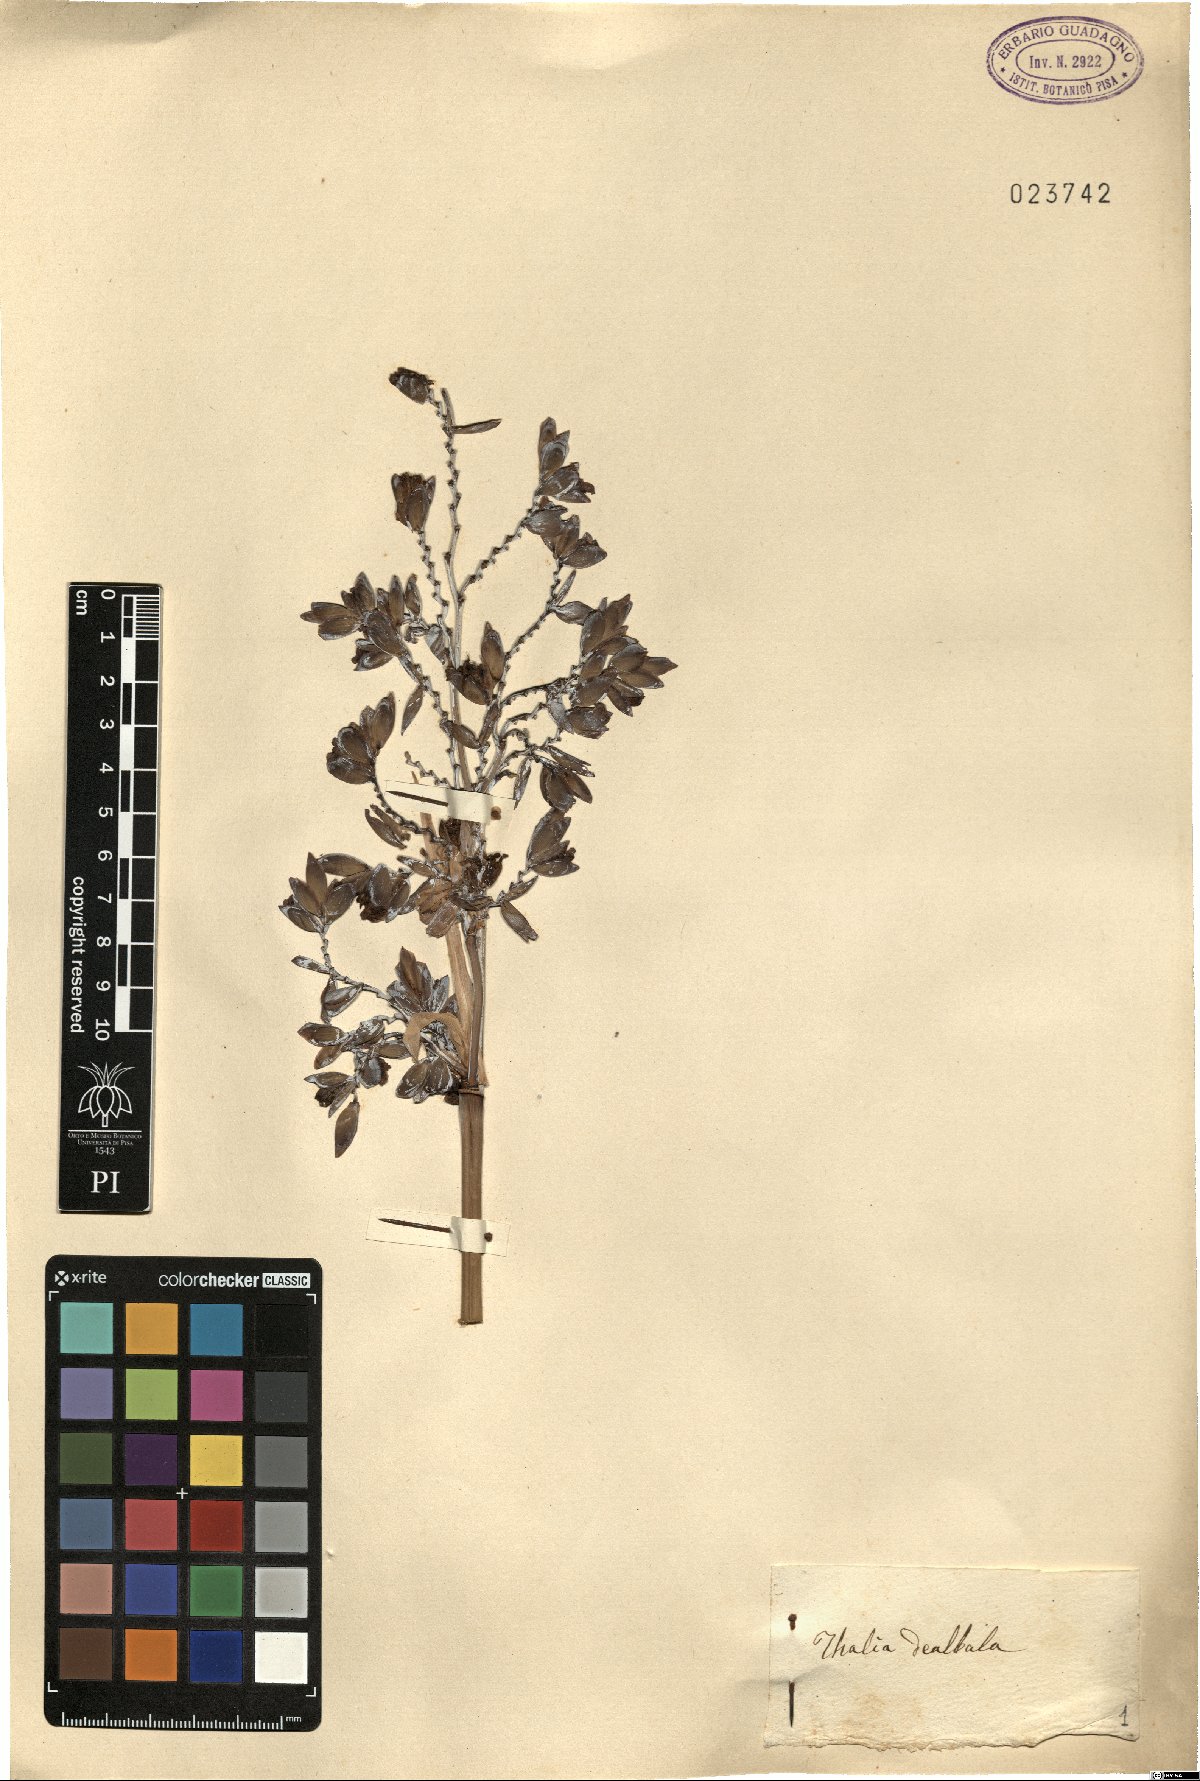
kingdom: Plantae
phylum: Tracheophyta
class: Liliopsida
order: Zingiberales
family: Marantaceae
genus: Thalia
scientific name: Thalia dealbata
